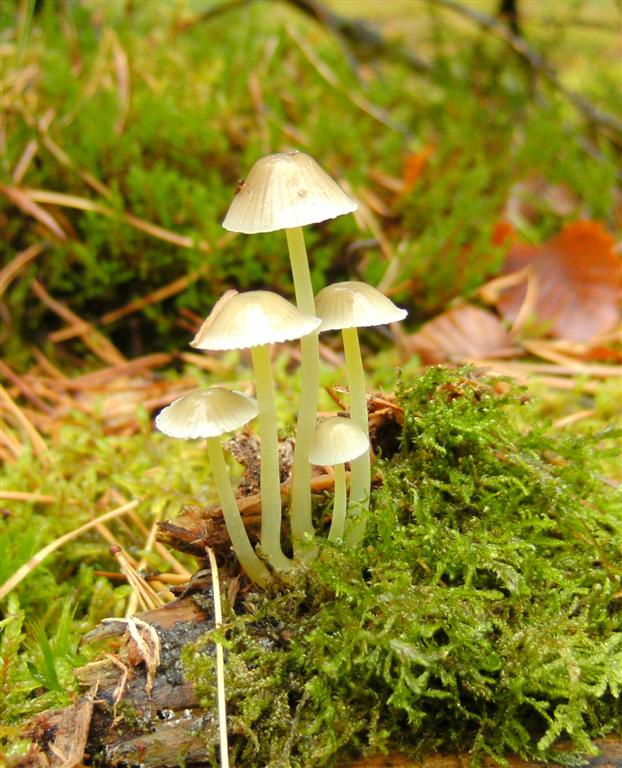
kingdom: Fungi
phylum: Basidiomycota
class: Agaricomycetes
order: Agaricales
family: Mycenaceae
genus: Mycena
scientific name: Mycena epipterygia
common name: gulstokket huesvamp
